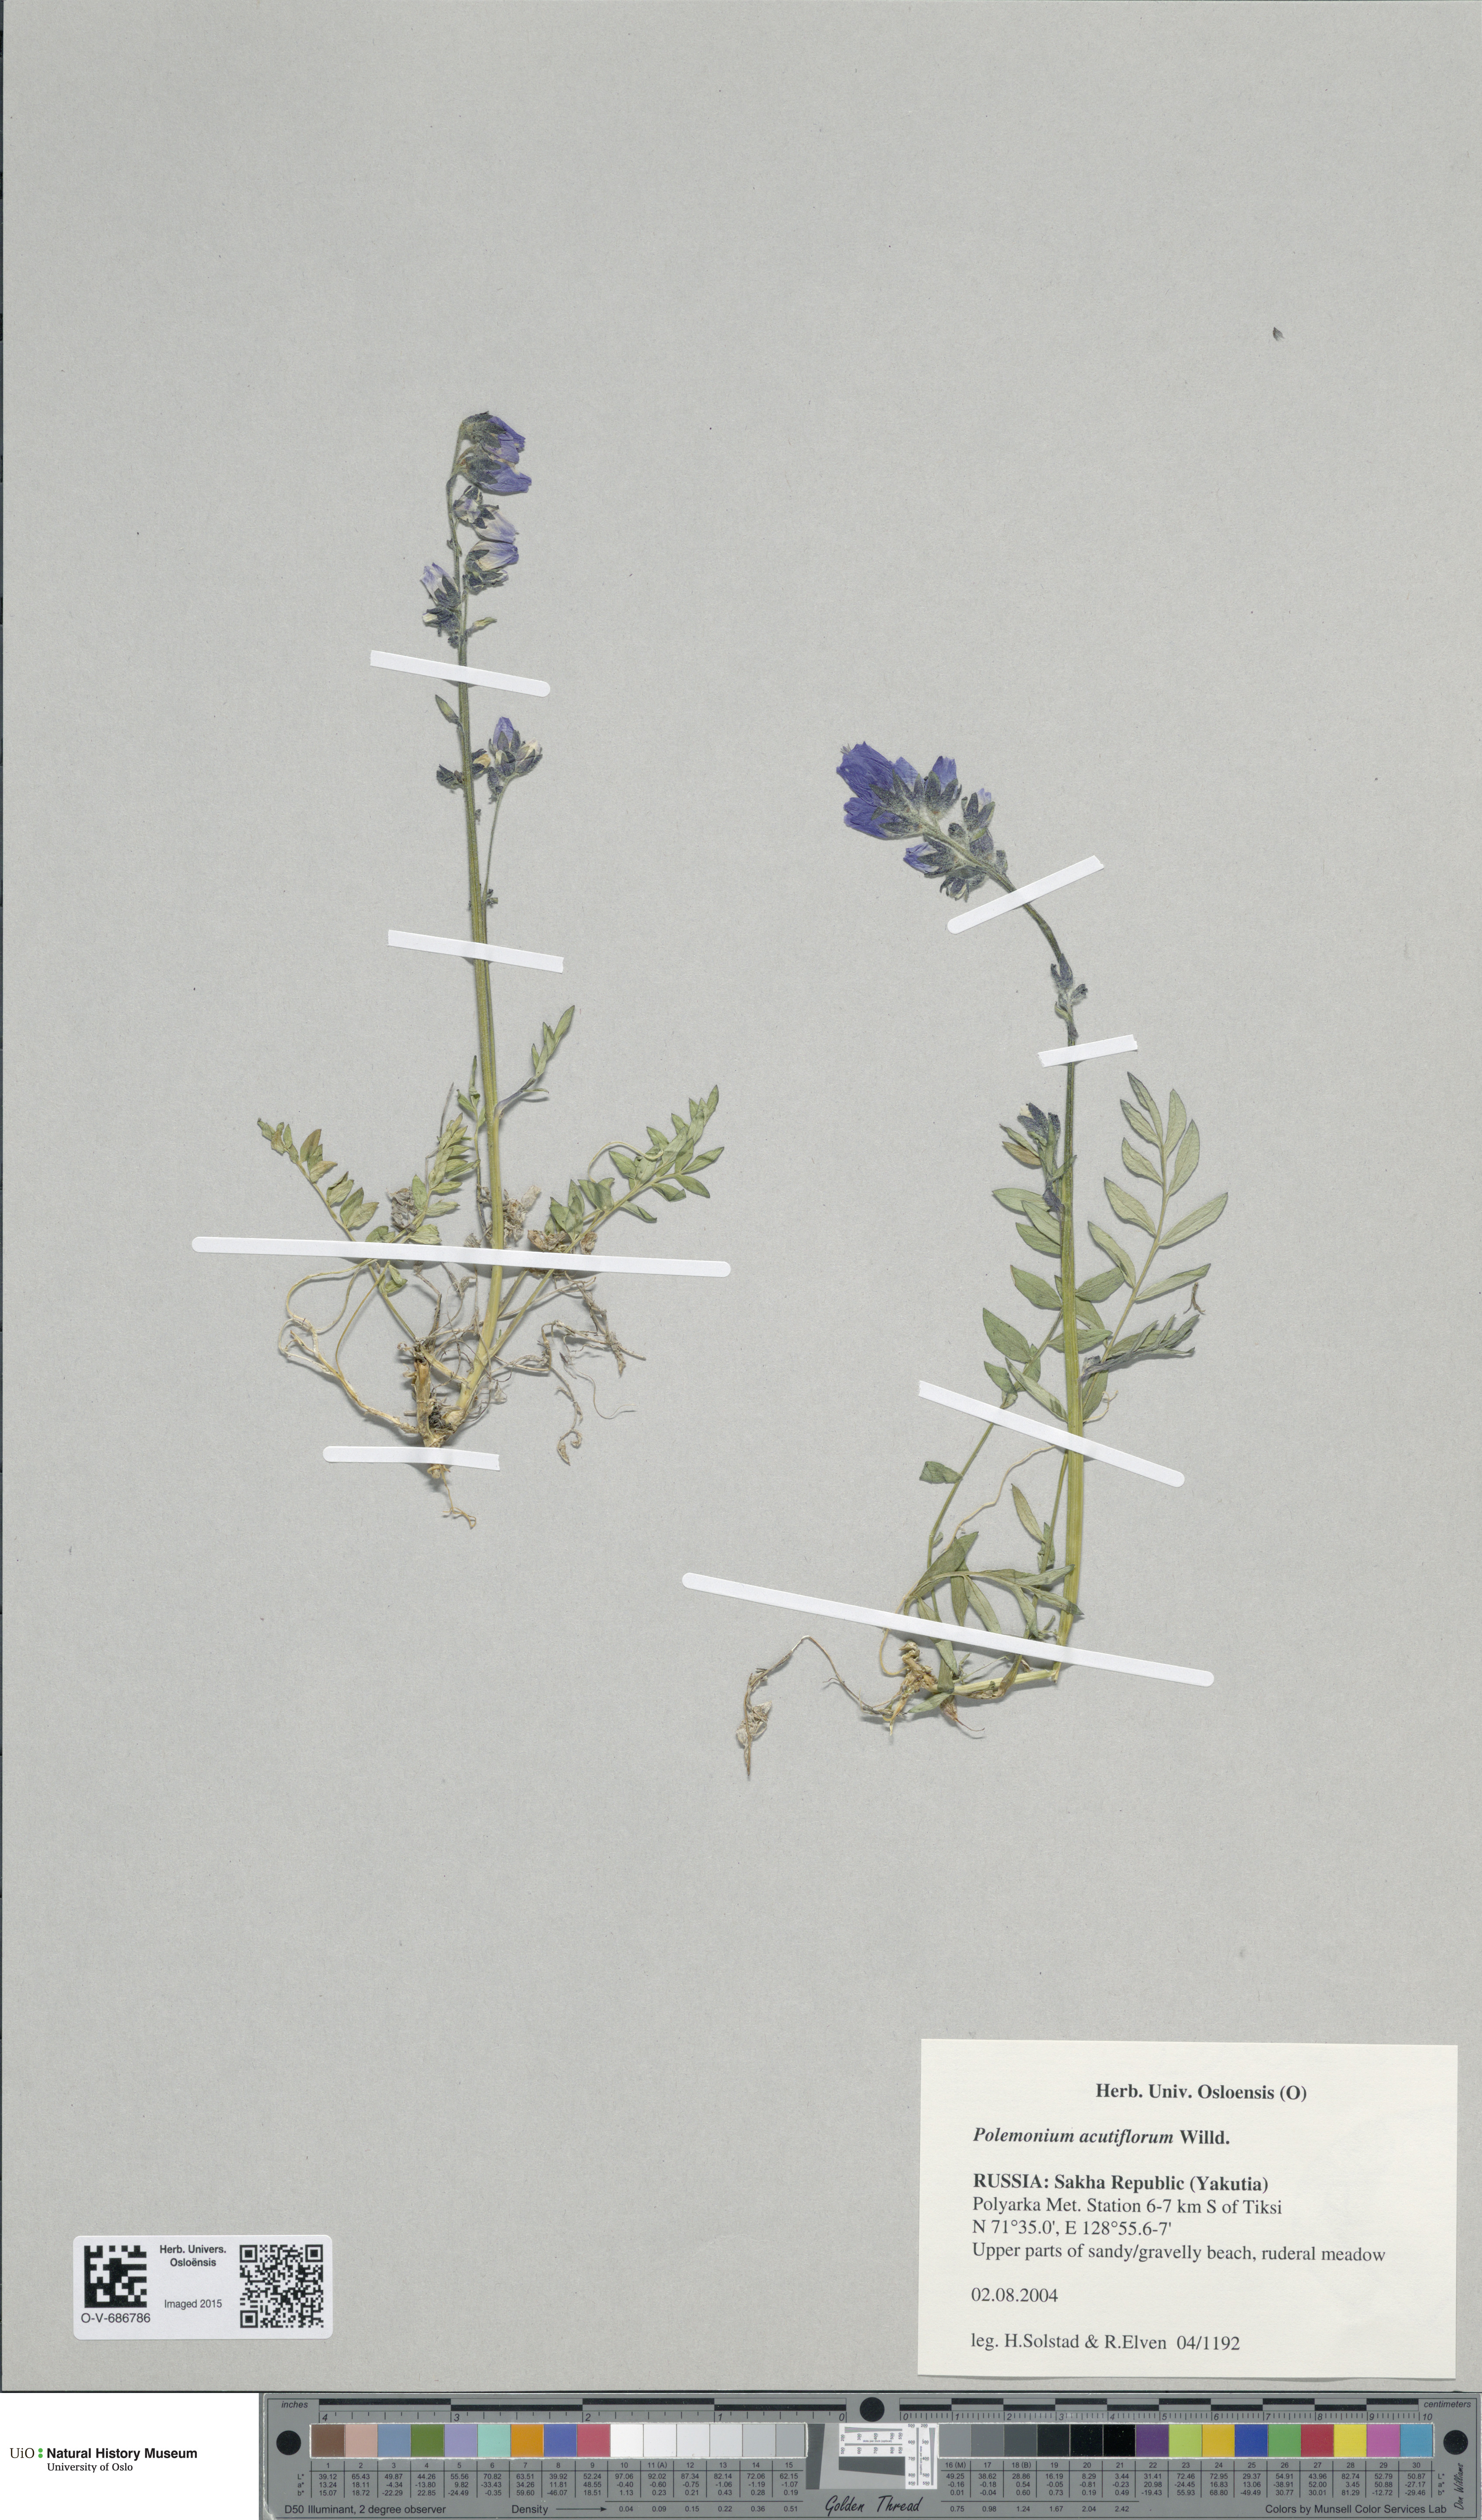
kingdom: Plantae
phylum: Tracheophyta
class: Magnoliopsida
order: Ericales
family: Polemoniaceae
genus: Polemonium
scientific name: Polemonium villosum
